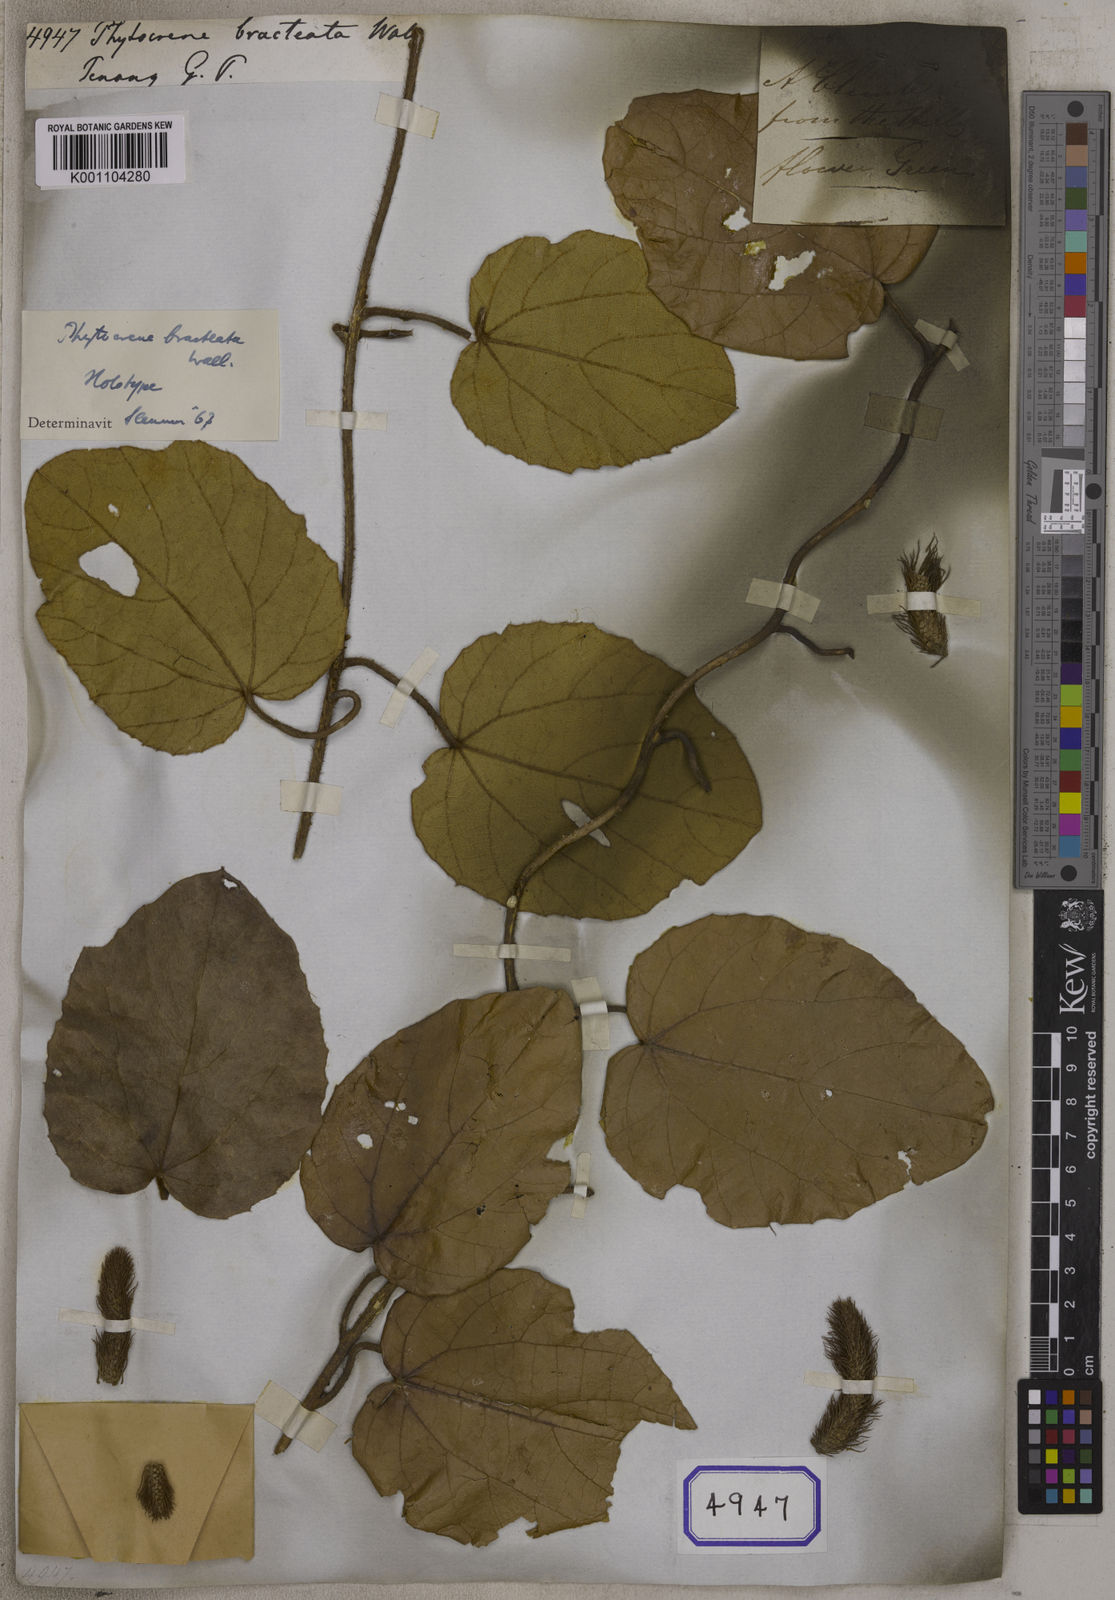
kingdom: Plantae
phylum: Tracheophyta
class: Magnoliopsida
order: Icacinales
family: Icacinaceae
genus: Phytocrene
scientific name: Phytocrene bracteata
